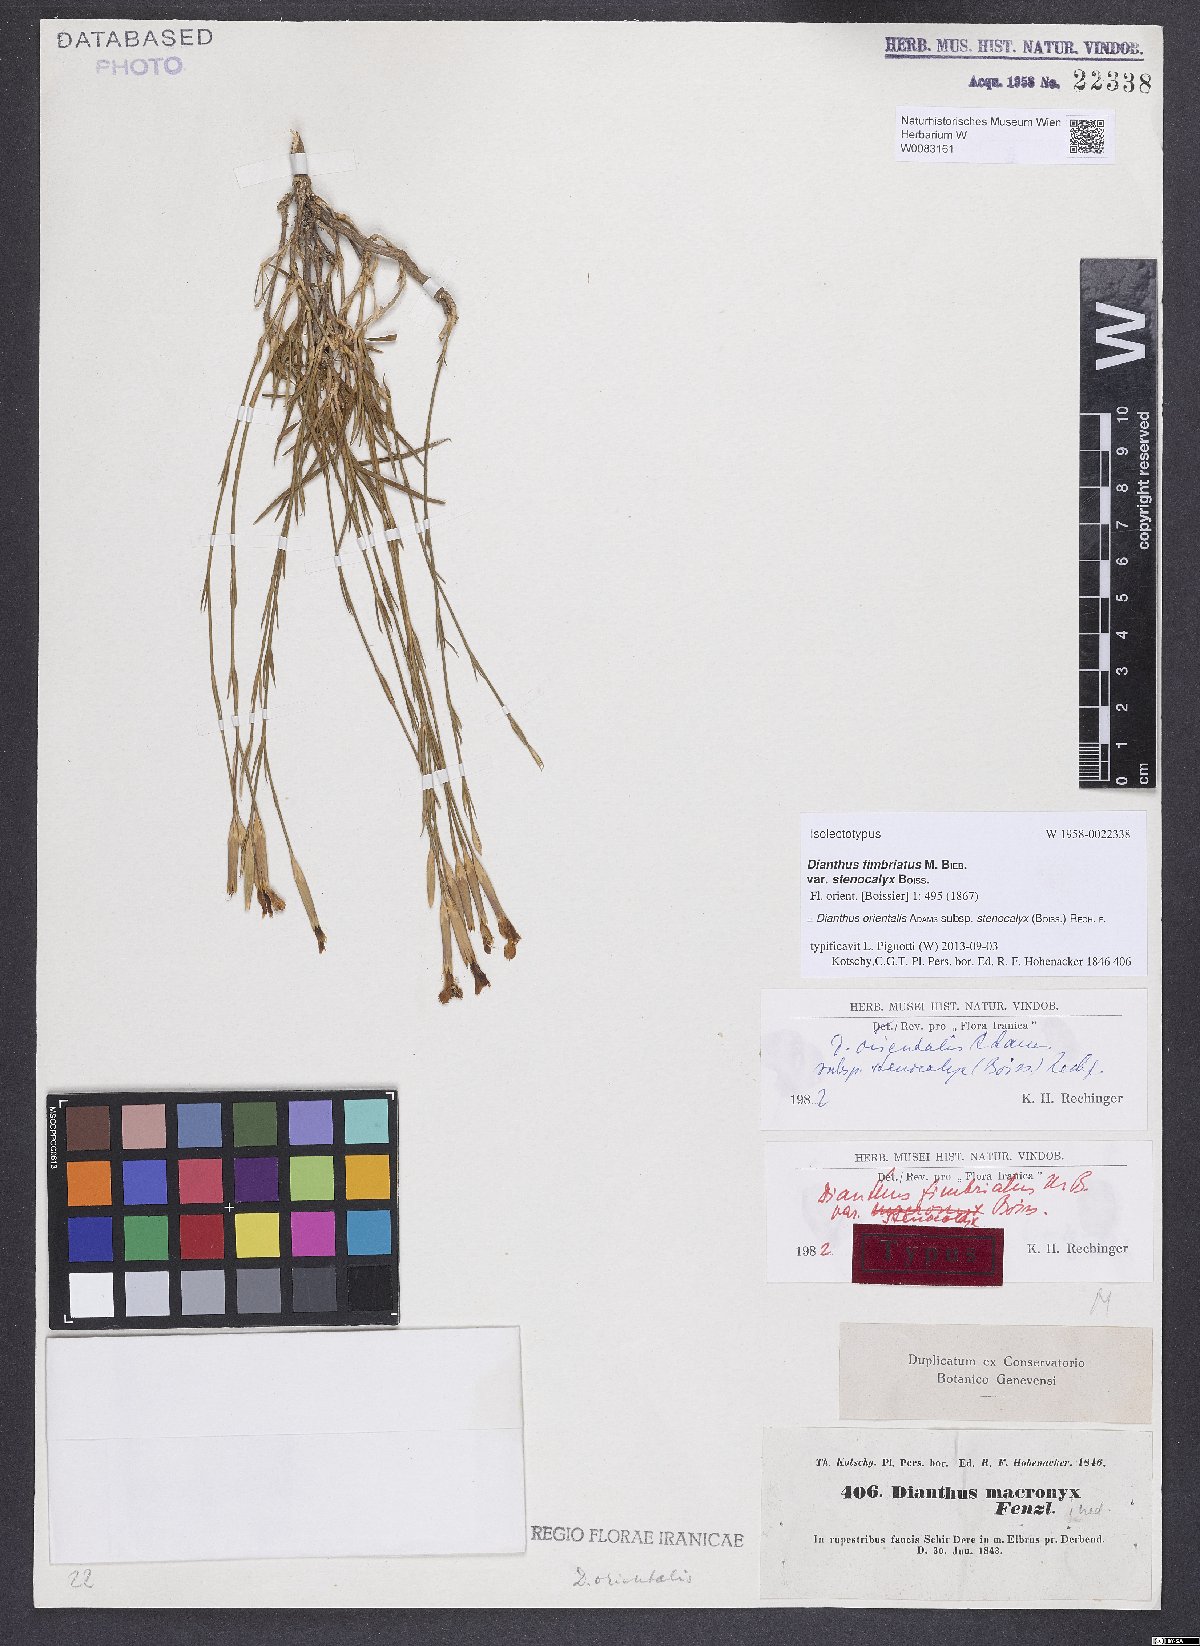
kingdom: Plantae
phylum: Tracheophyta
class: Magnoliopsida
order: Caryophyllales
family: Caryophyllaceae
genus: Dianthus
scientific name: Dianthus orientalis
